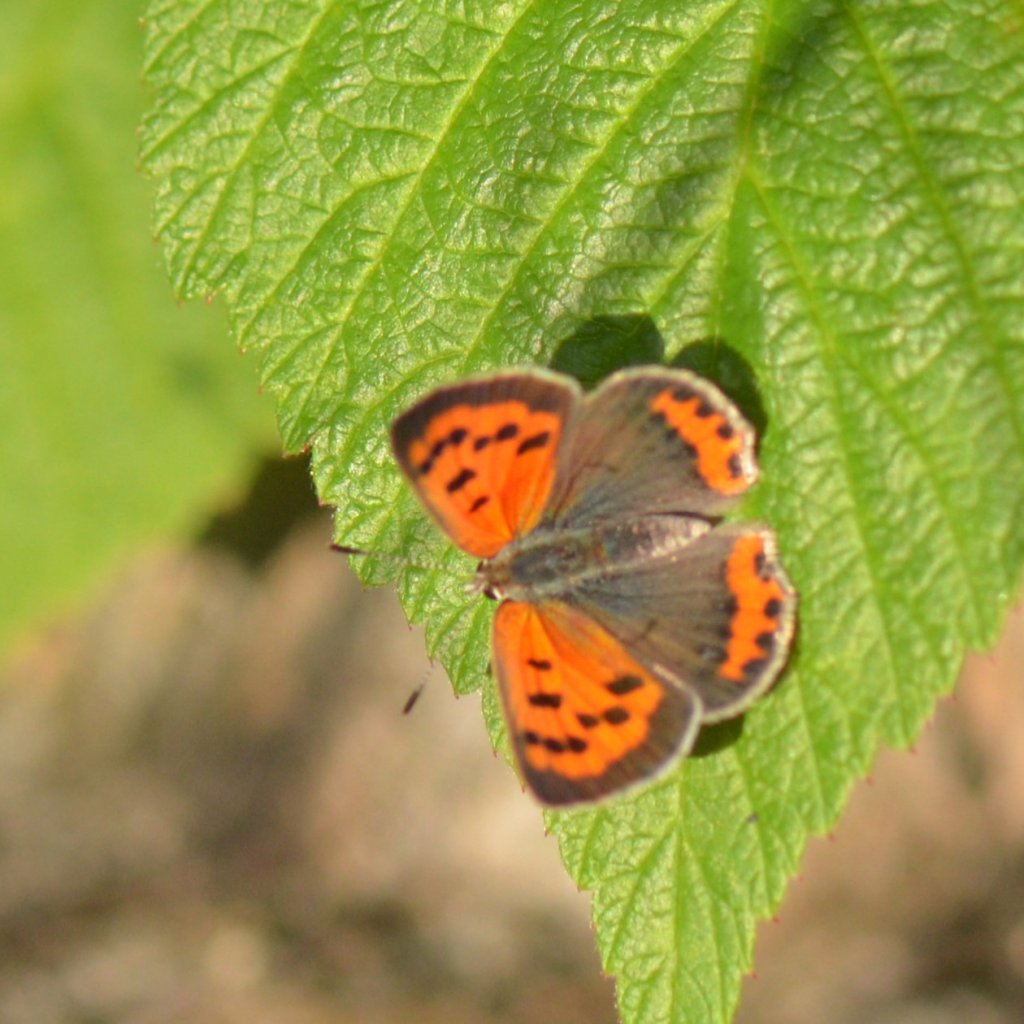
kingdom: Animalia
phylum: Arthropoda
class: Insecta
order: Lepidoptera
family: Lycaenidae
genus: Lycaena
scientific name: Lycaena phlaeas
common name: American Copper
